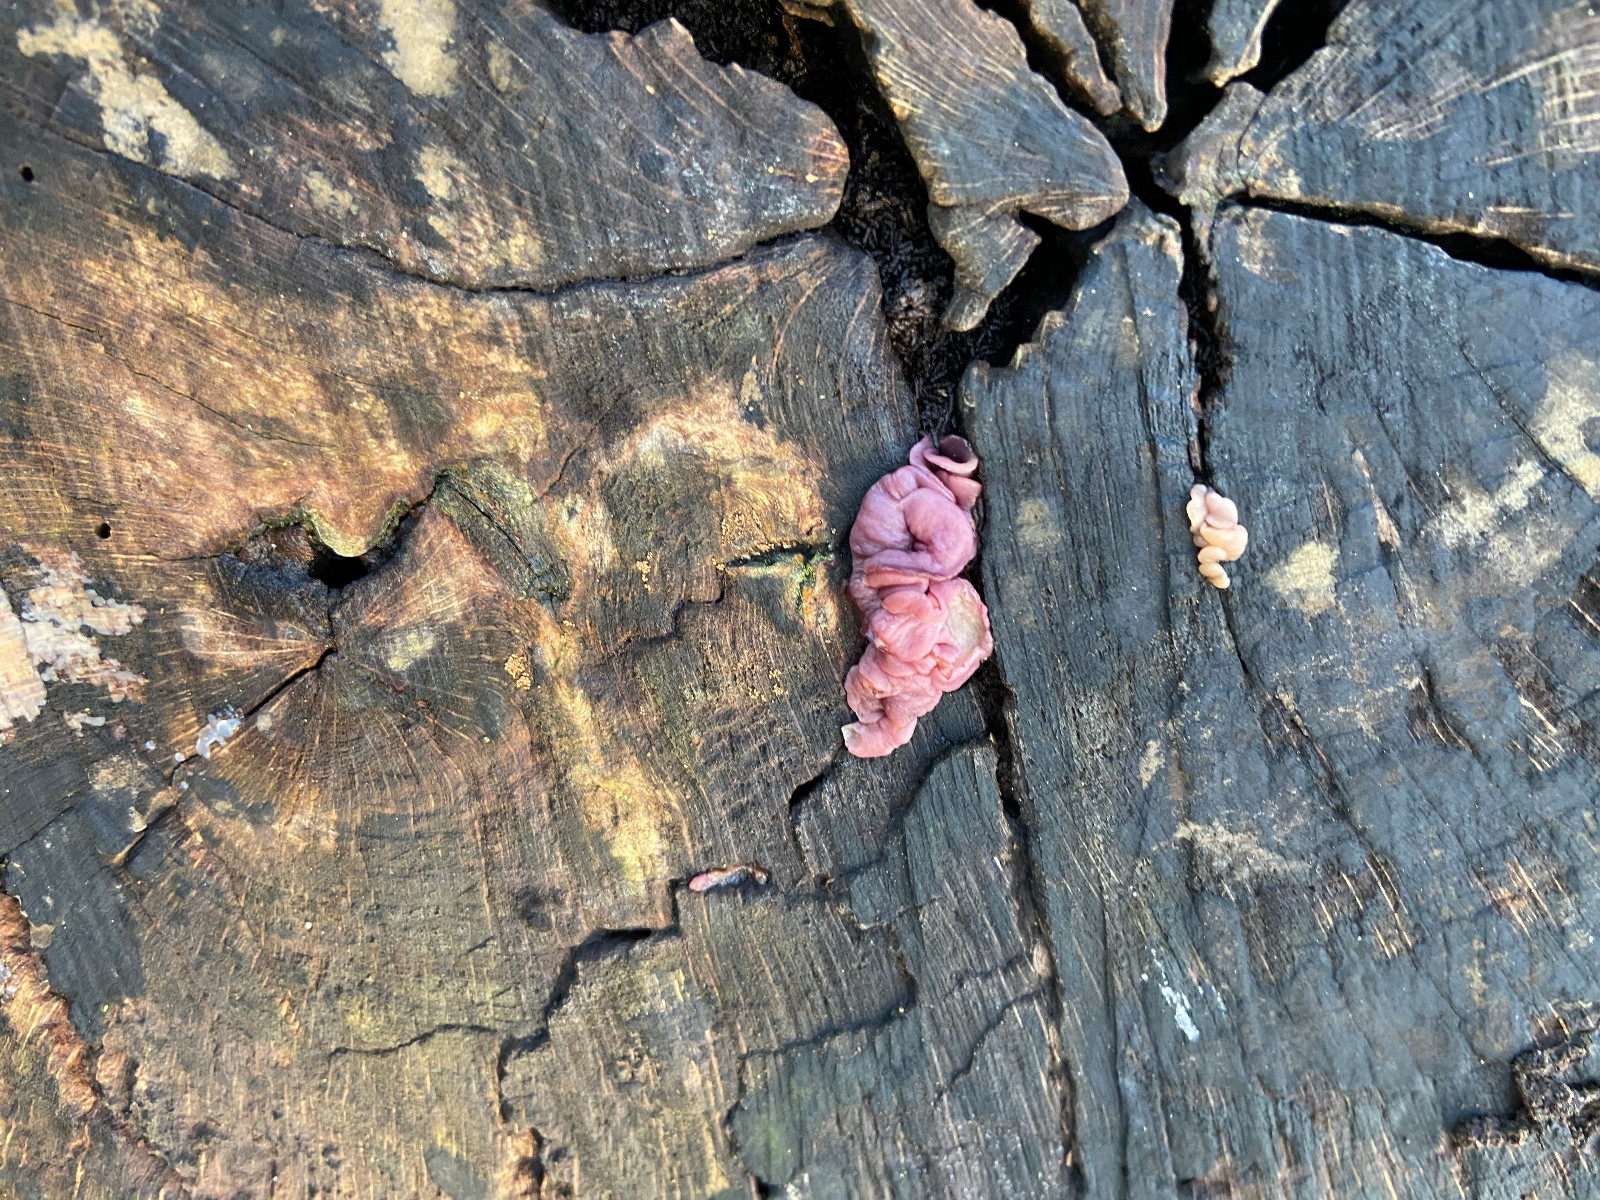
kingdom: Fungi
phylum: Ascomycota
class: Leotiomycetes
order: Helotiales
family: Gelatinodiscaceae
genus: Ascocoryne
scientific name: Ascocoryne sarcoides
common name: rødlilla sejskive
